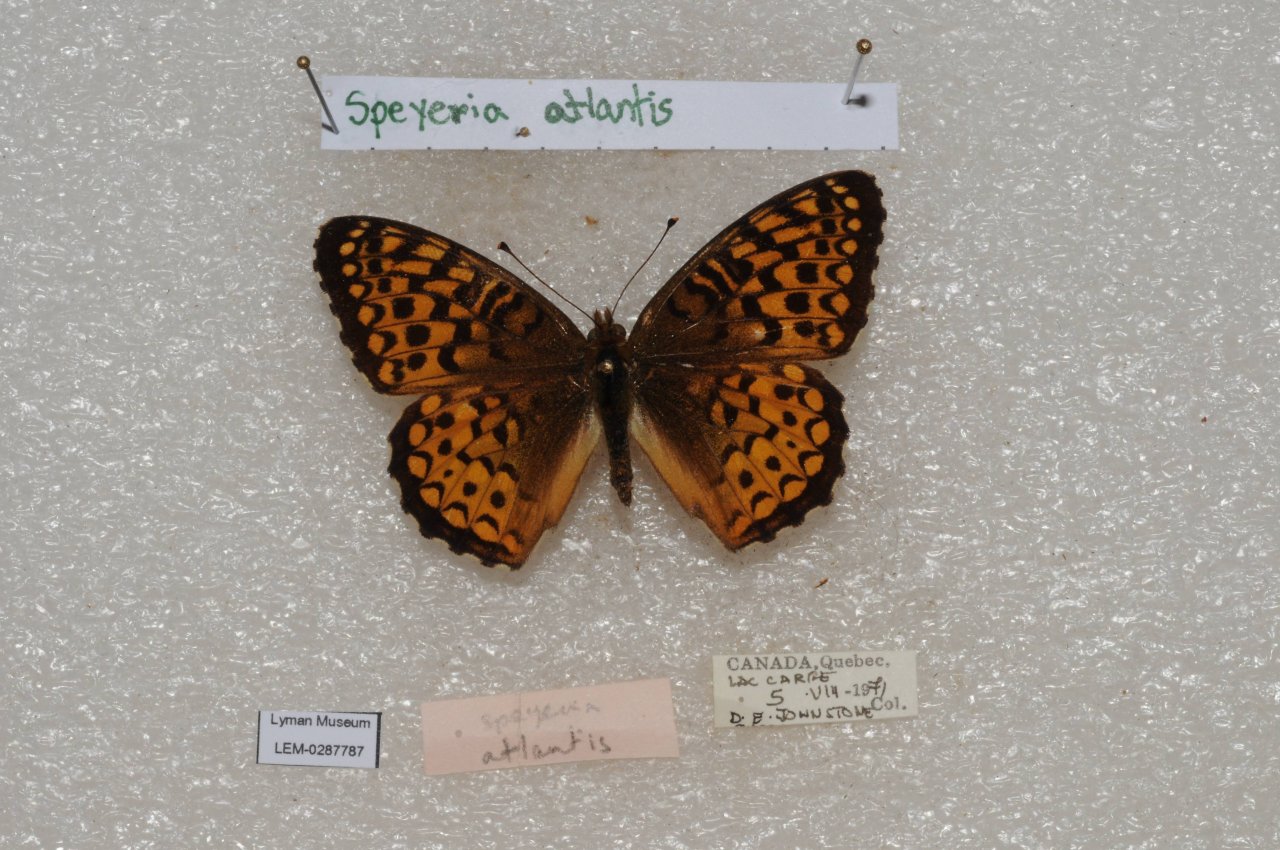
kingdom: Animalia
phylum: Arthropoda
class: Insecta
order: Lepidoptera
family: Nymphalidae
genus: Speyeria
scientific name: Speyeria atlantis
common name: Atlantis Fritillary
